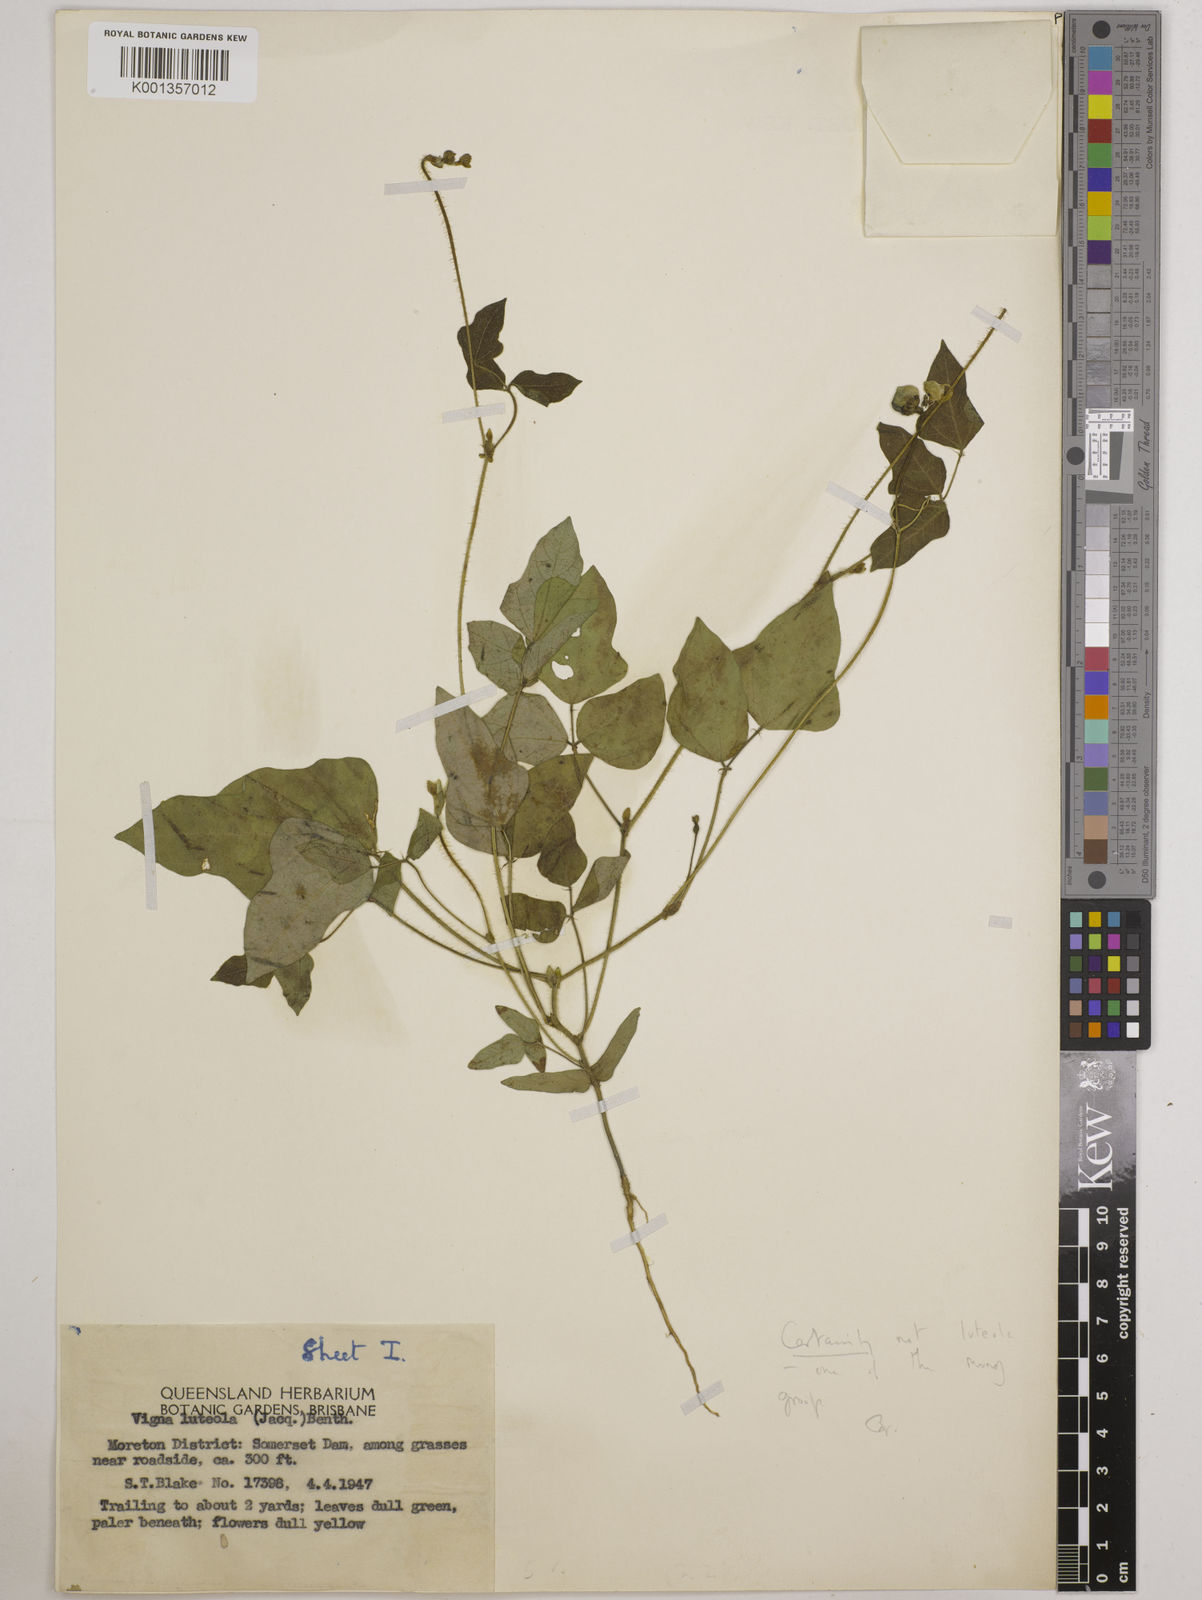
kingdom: Plantae
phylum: Tracheophyta
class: Magnoliopsida
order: Fabales
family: Fabaceae
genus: Vigna
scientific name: Vigna radiata
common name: Mung-bean
